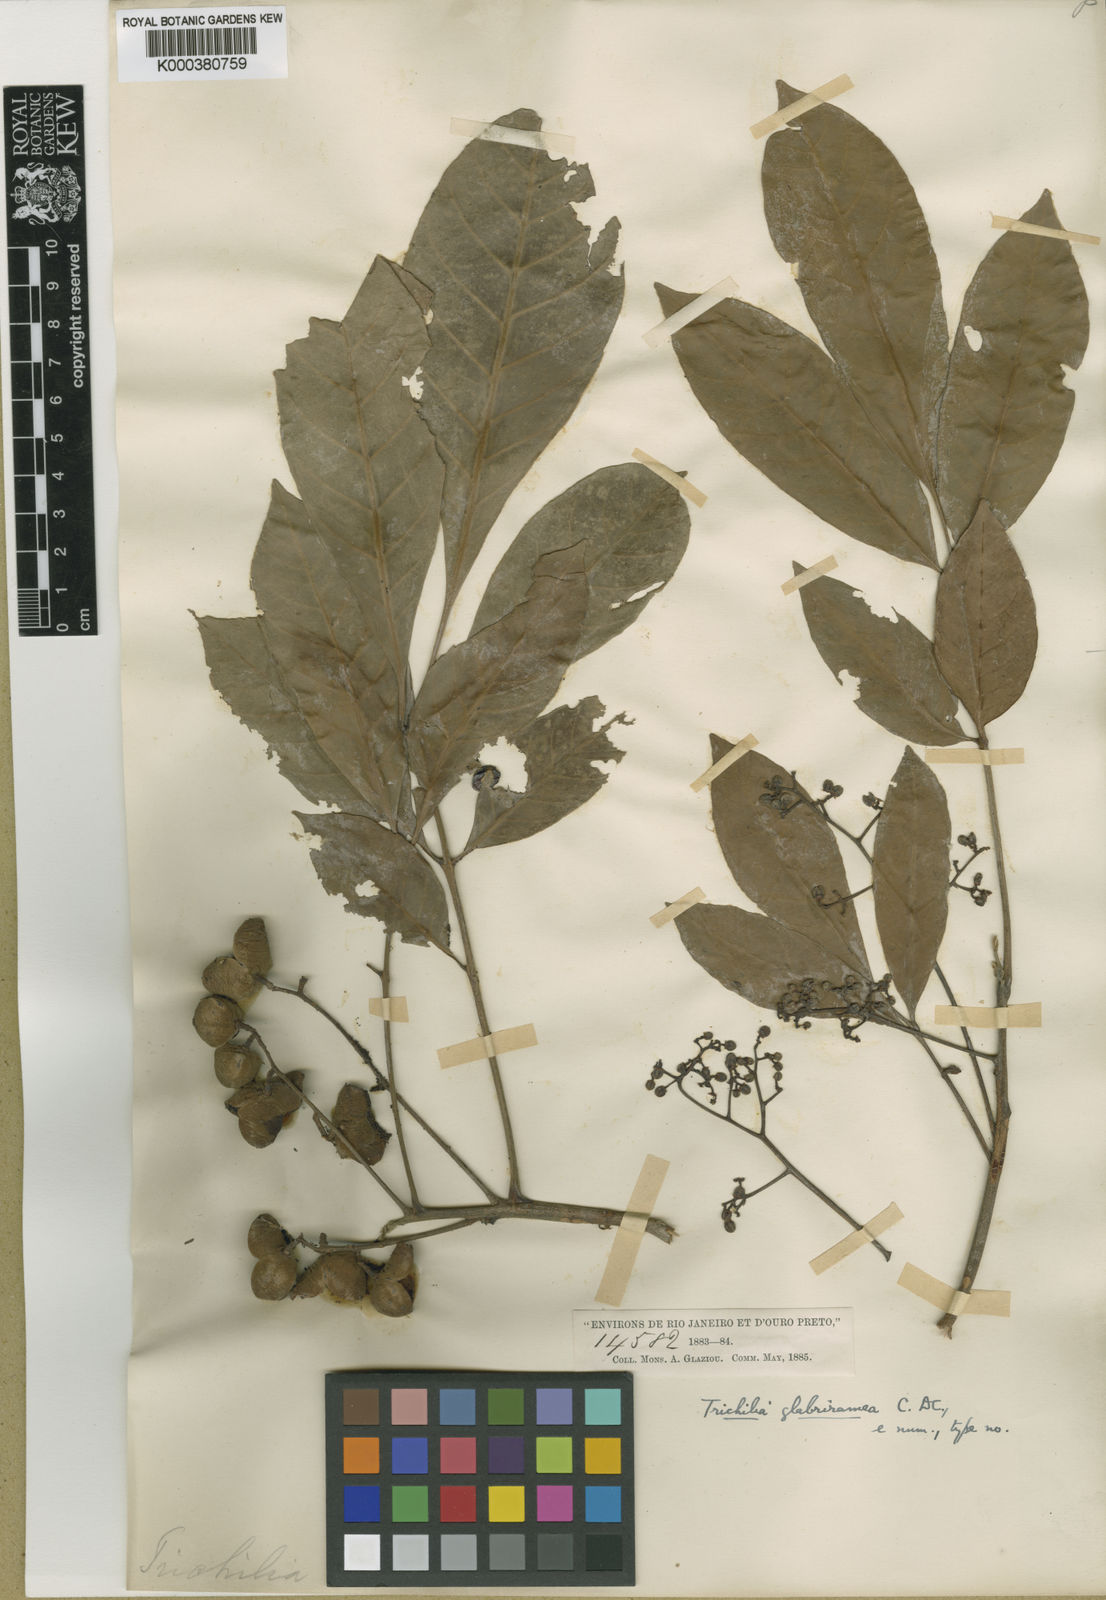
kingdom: Plantae
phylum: Tracheophyta
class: Magnoliopsida
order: Sapindales
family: Meliaceae
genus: Trichilia
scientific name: Trichilia pallens
